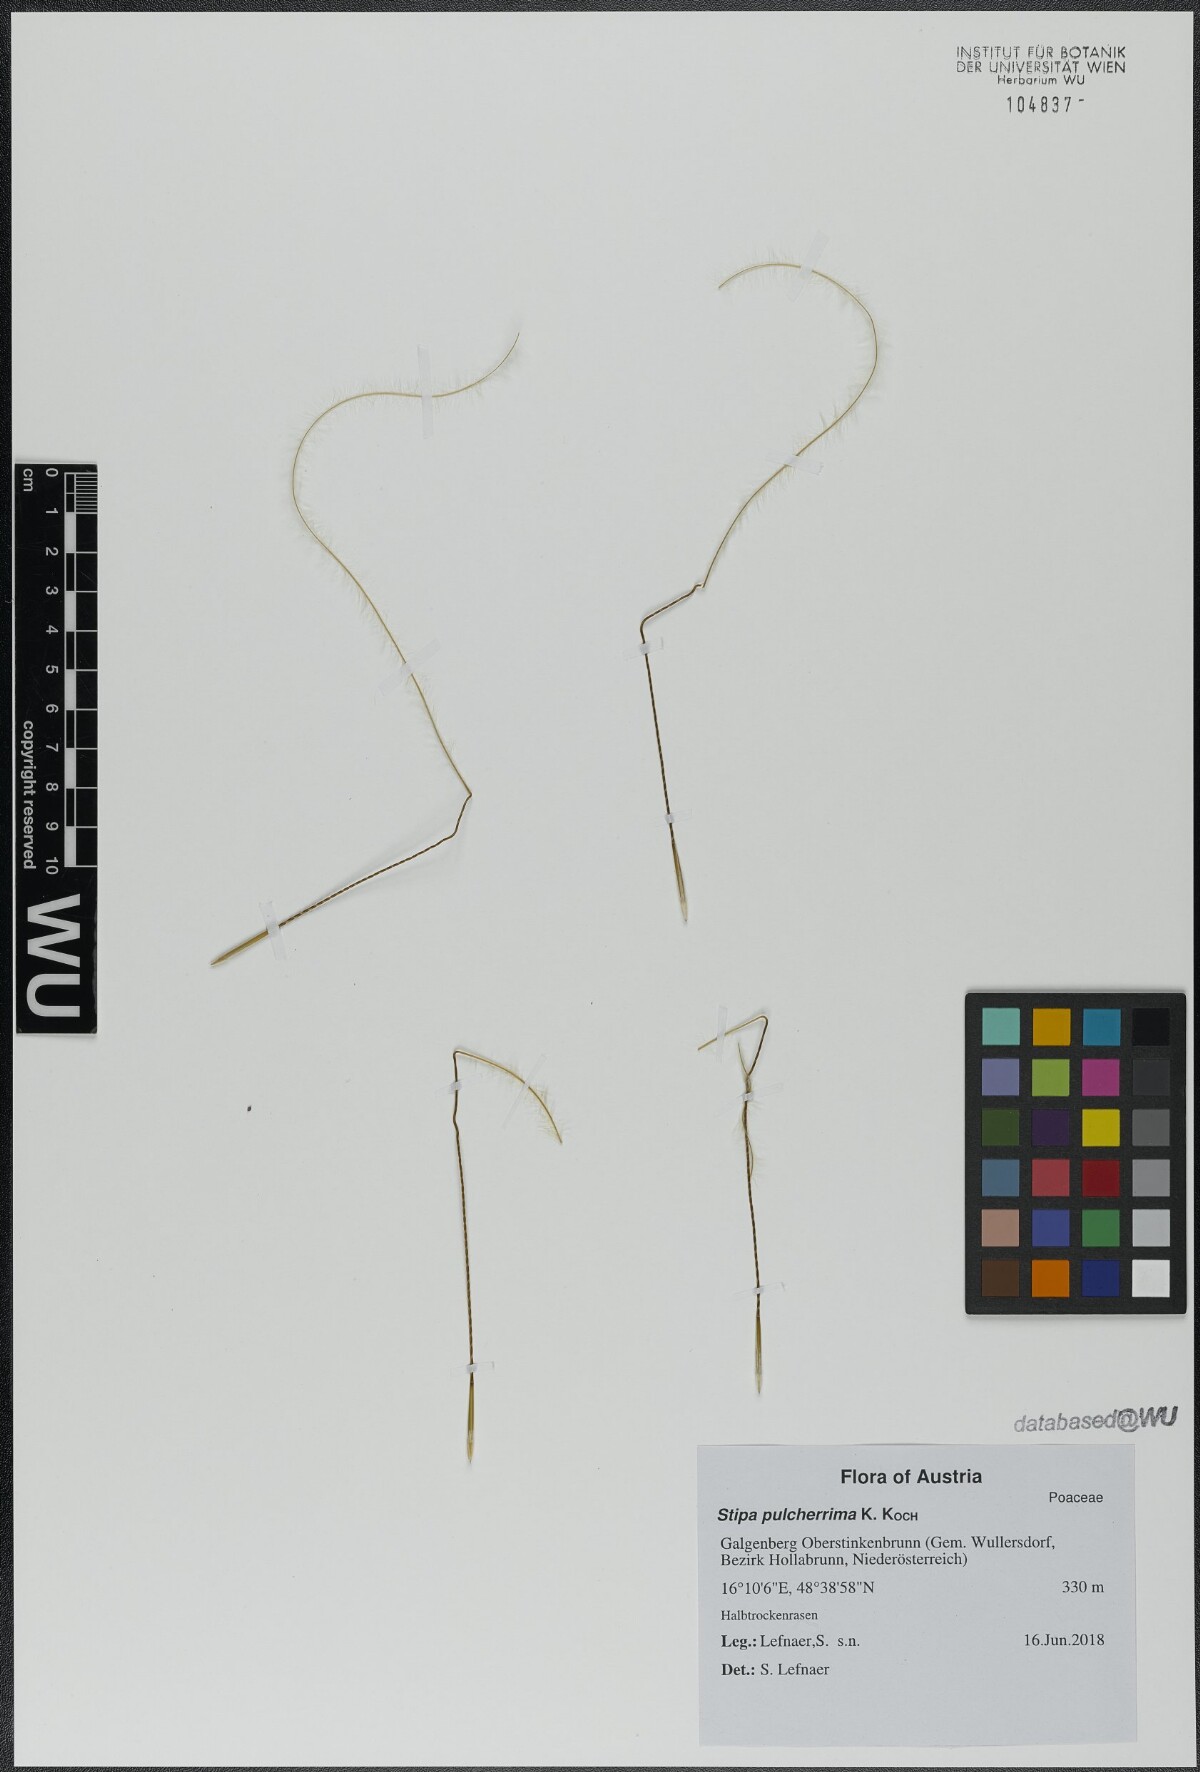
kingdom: Plantae
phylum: Tracheophyta
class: Liliopsida
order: Poales
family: Poaceae
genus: Stipa
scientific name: Stipa pulcherrima
